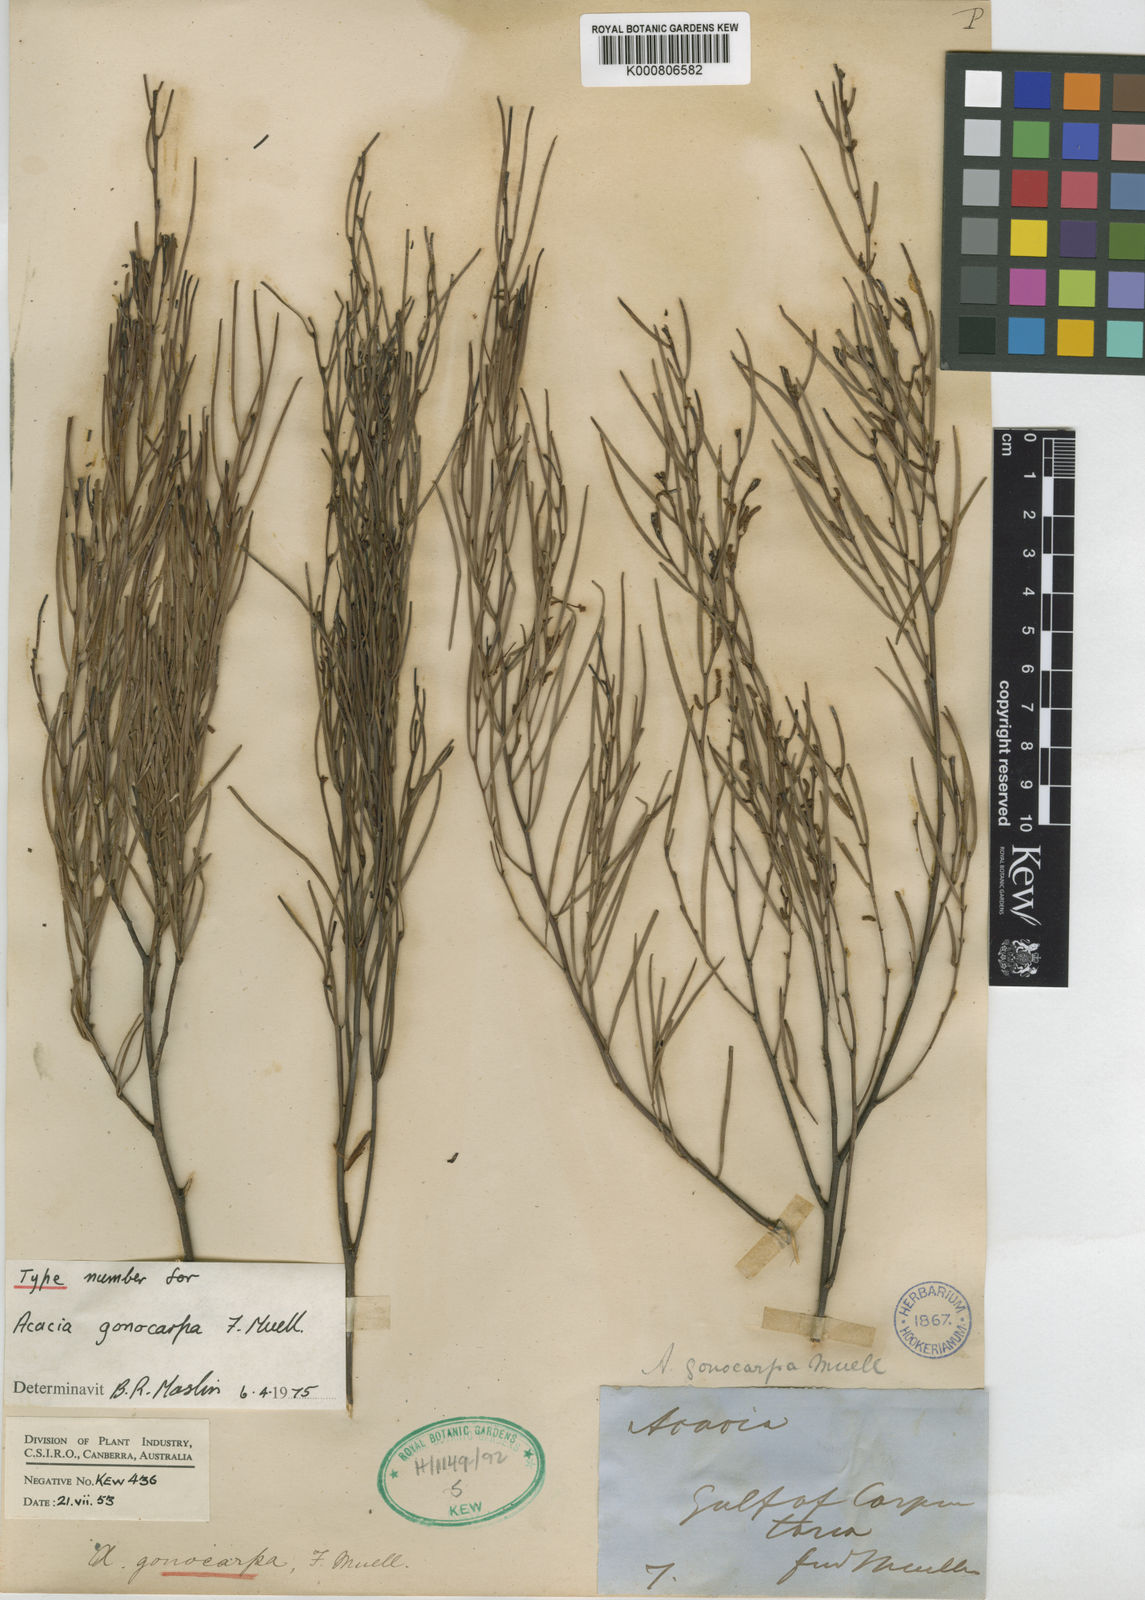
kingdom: Plantae
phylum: Tracheophyta
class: Magnoliopsida
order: Fabales
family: Fabaceae
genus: Acacia
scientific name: Acacia gonocarpa
